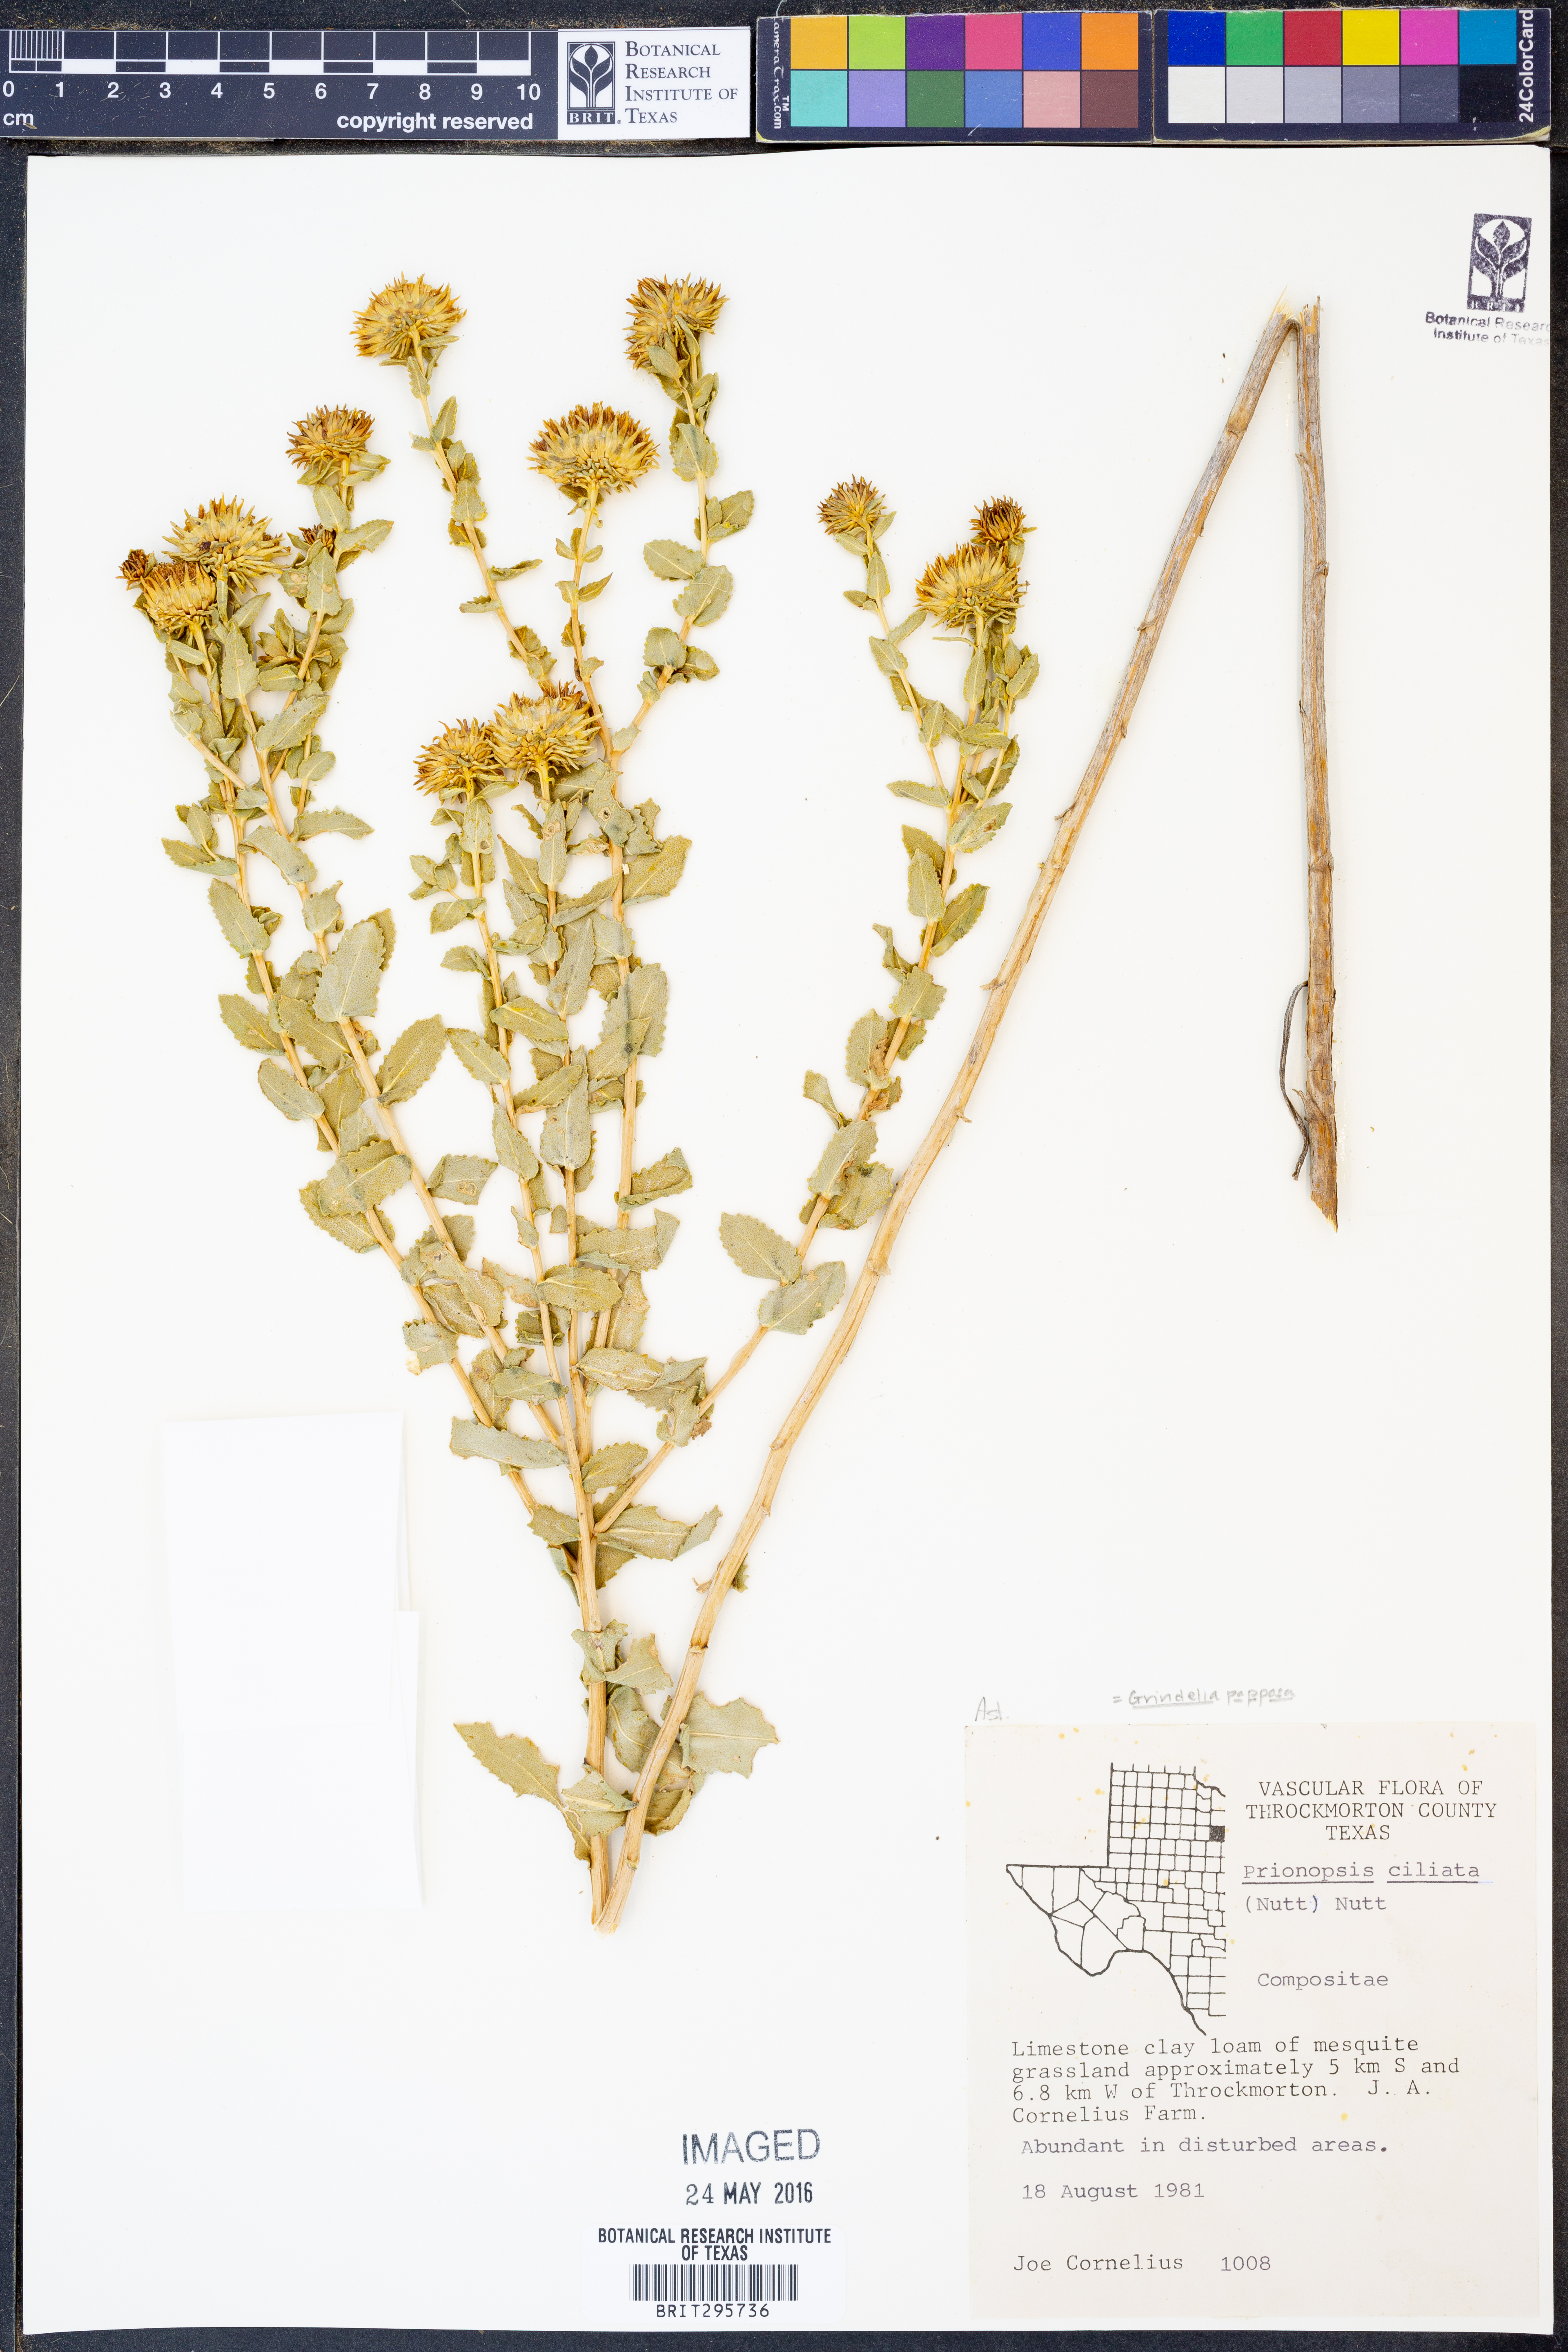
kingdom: Plantae
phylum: Tracheophyta
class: Magnoliopsida
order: Asterales
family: Asteraceae
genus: Grindelia
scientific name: Grindelia ciliata
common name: Goldenweed
